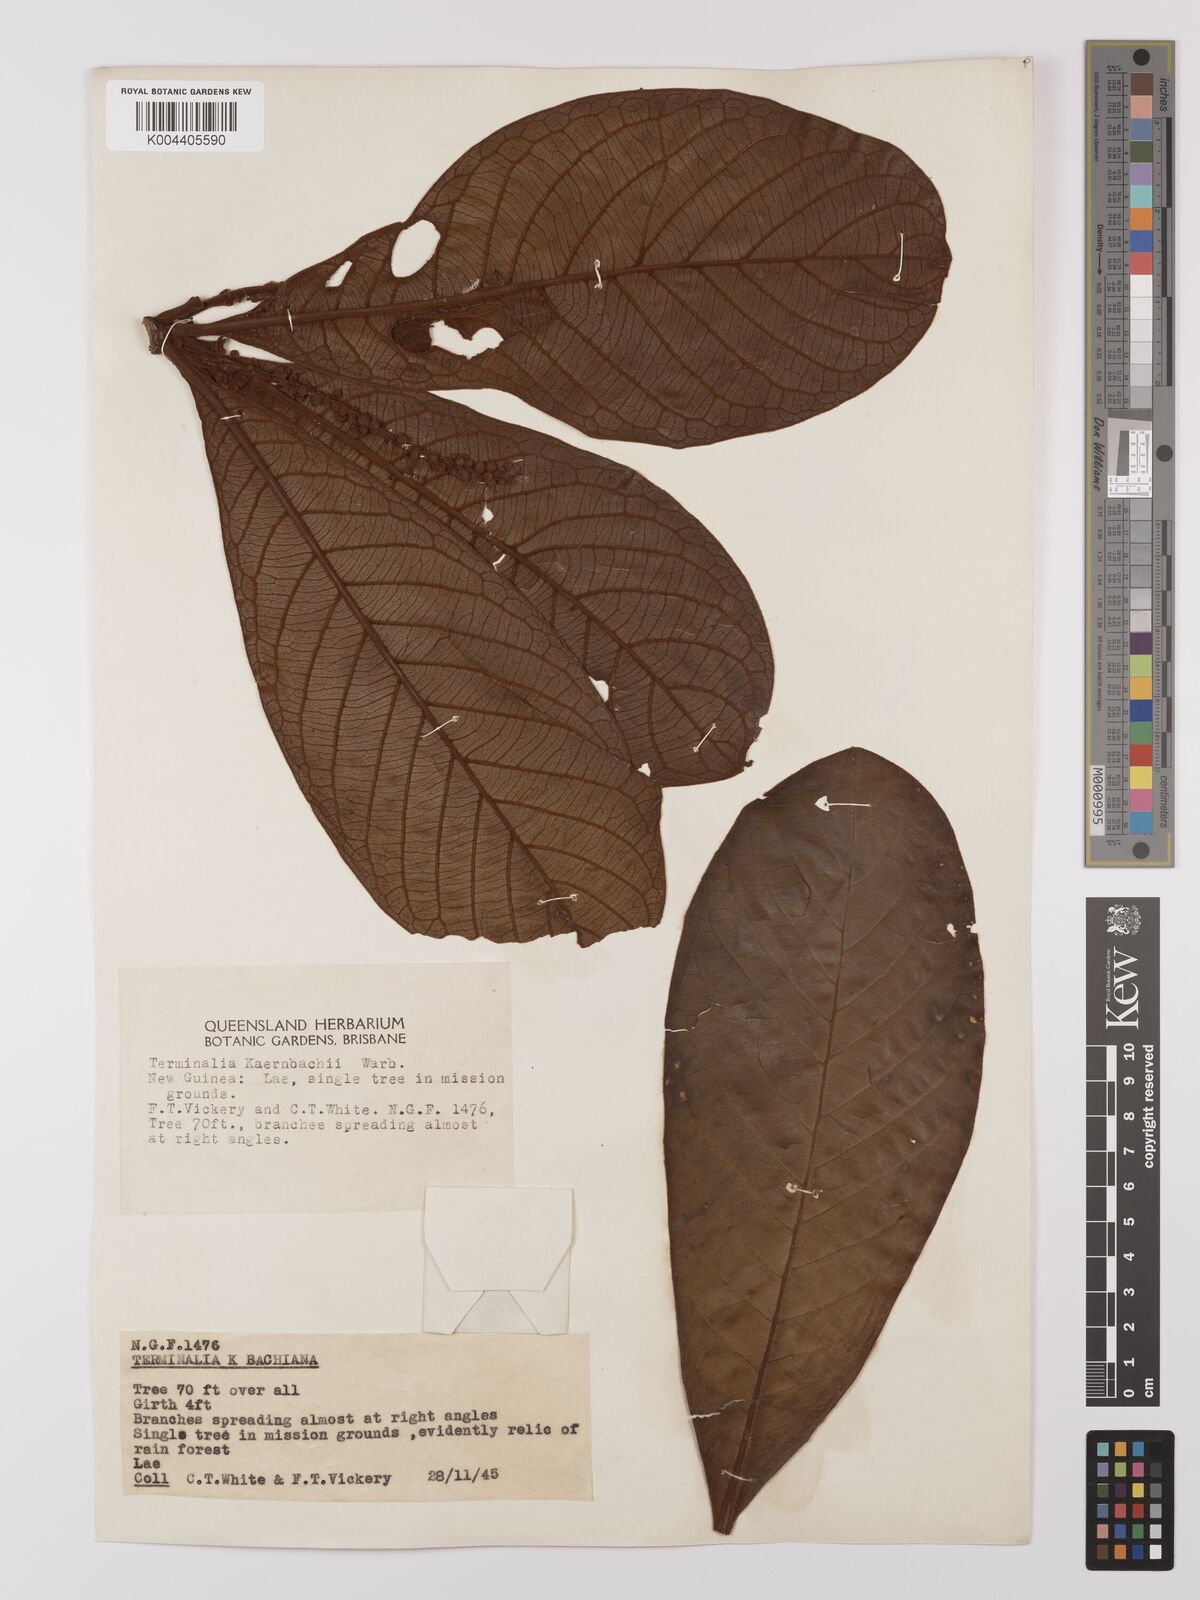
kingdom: Plantae
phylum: Tracheophyta
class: Magnoliopsida
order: Myrtales
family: Combretaceae
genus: Terminalia
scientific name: Terminalia kaernbachii
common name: Okari-nut
